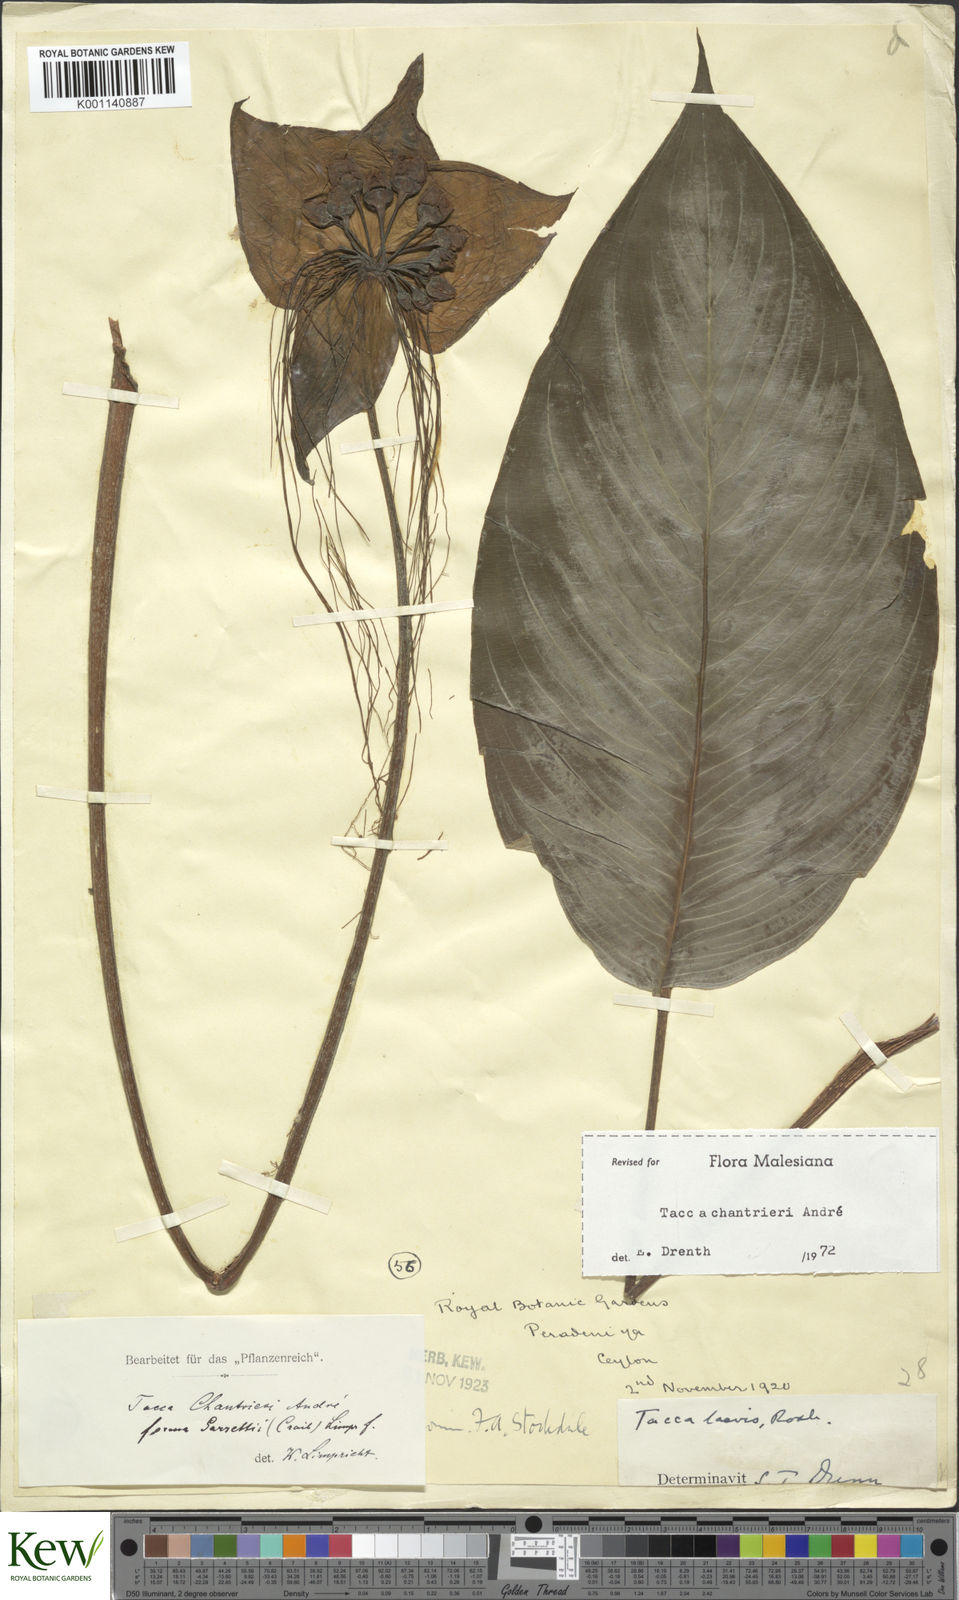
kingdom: Plantae
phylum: Tracheophyta
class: Liliopsida
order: Dioscoreales
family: Dioscoreaceae
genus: Tacca
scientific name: Tacca
